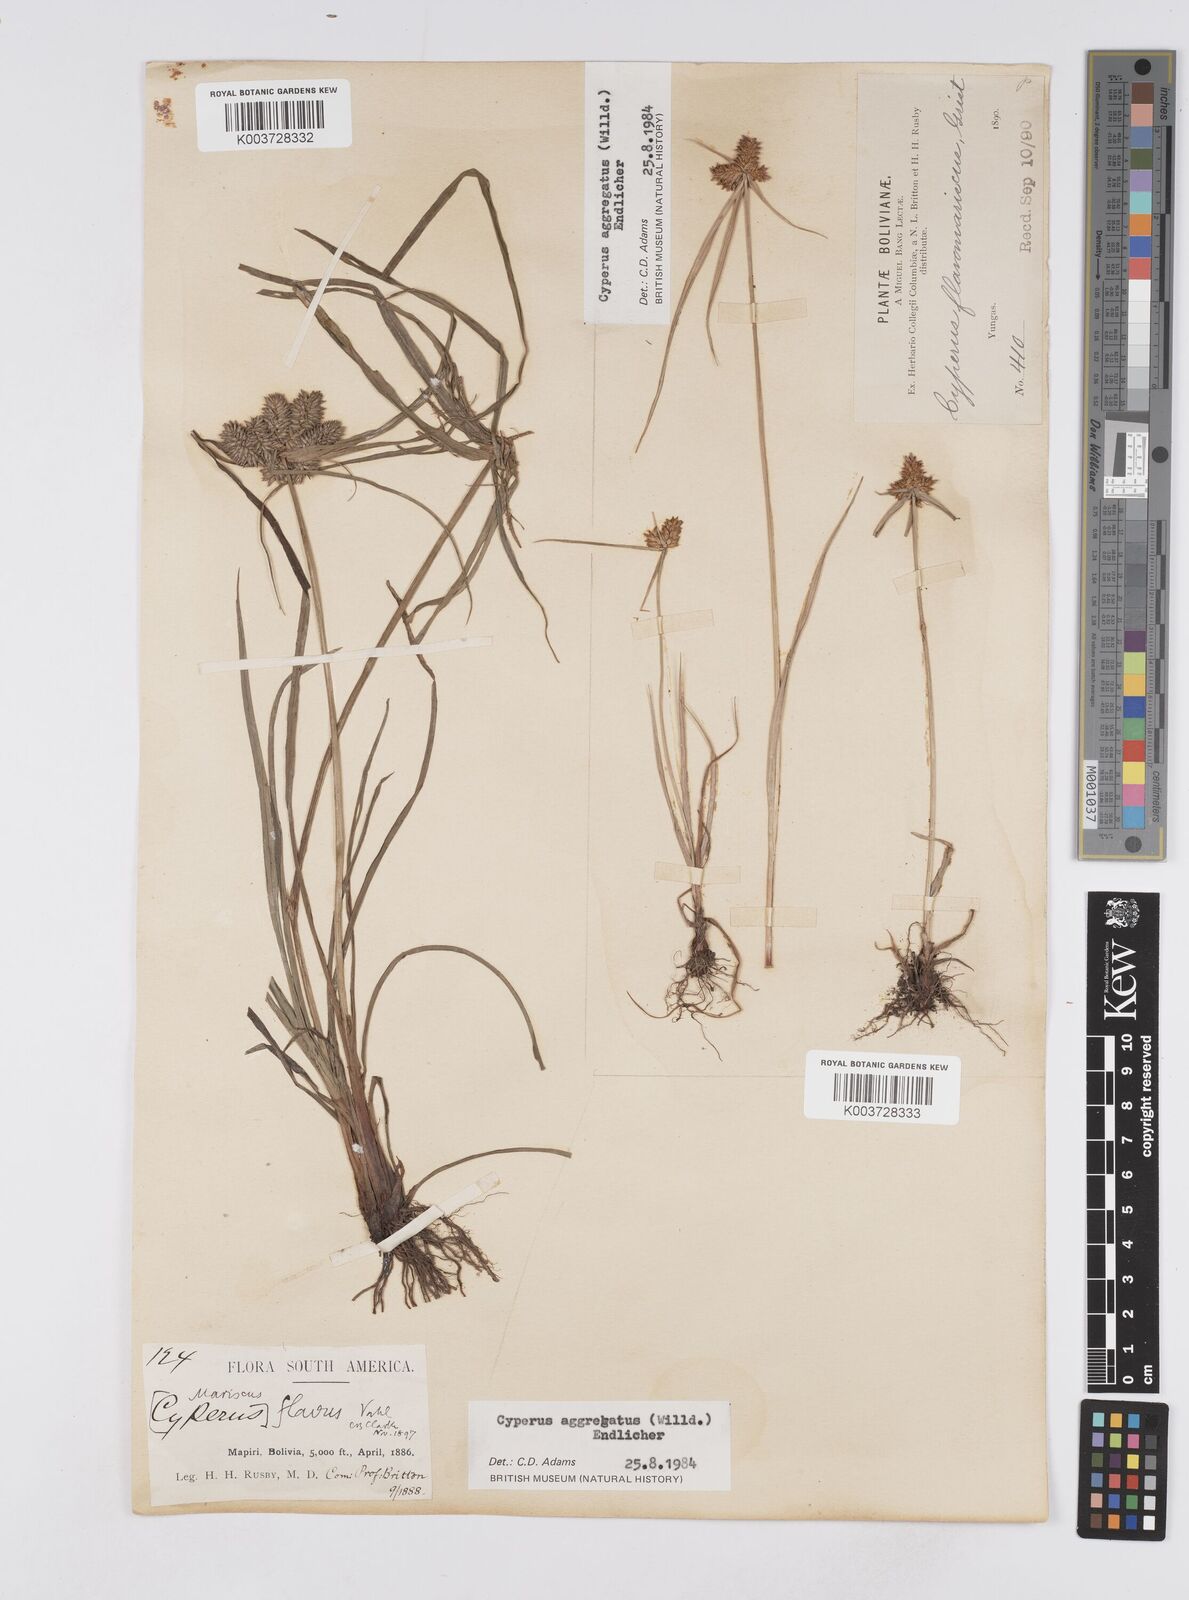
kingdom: Plantae
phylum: Tracheophyta
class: Liliopsida
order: Poales
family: Cyperaceae
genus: Cyperus
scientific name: Cyperus aggregatus
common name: Inflatedscale flatsedge
